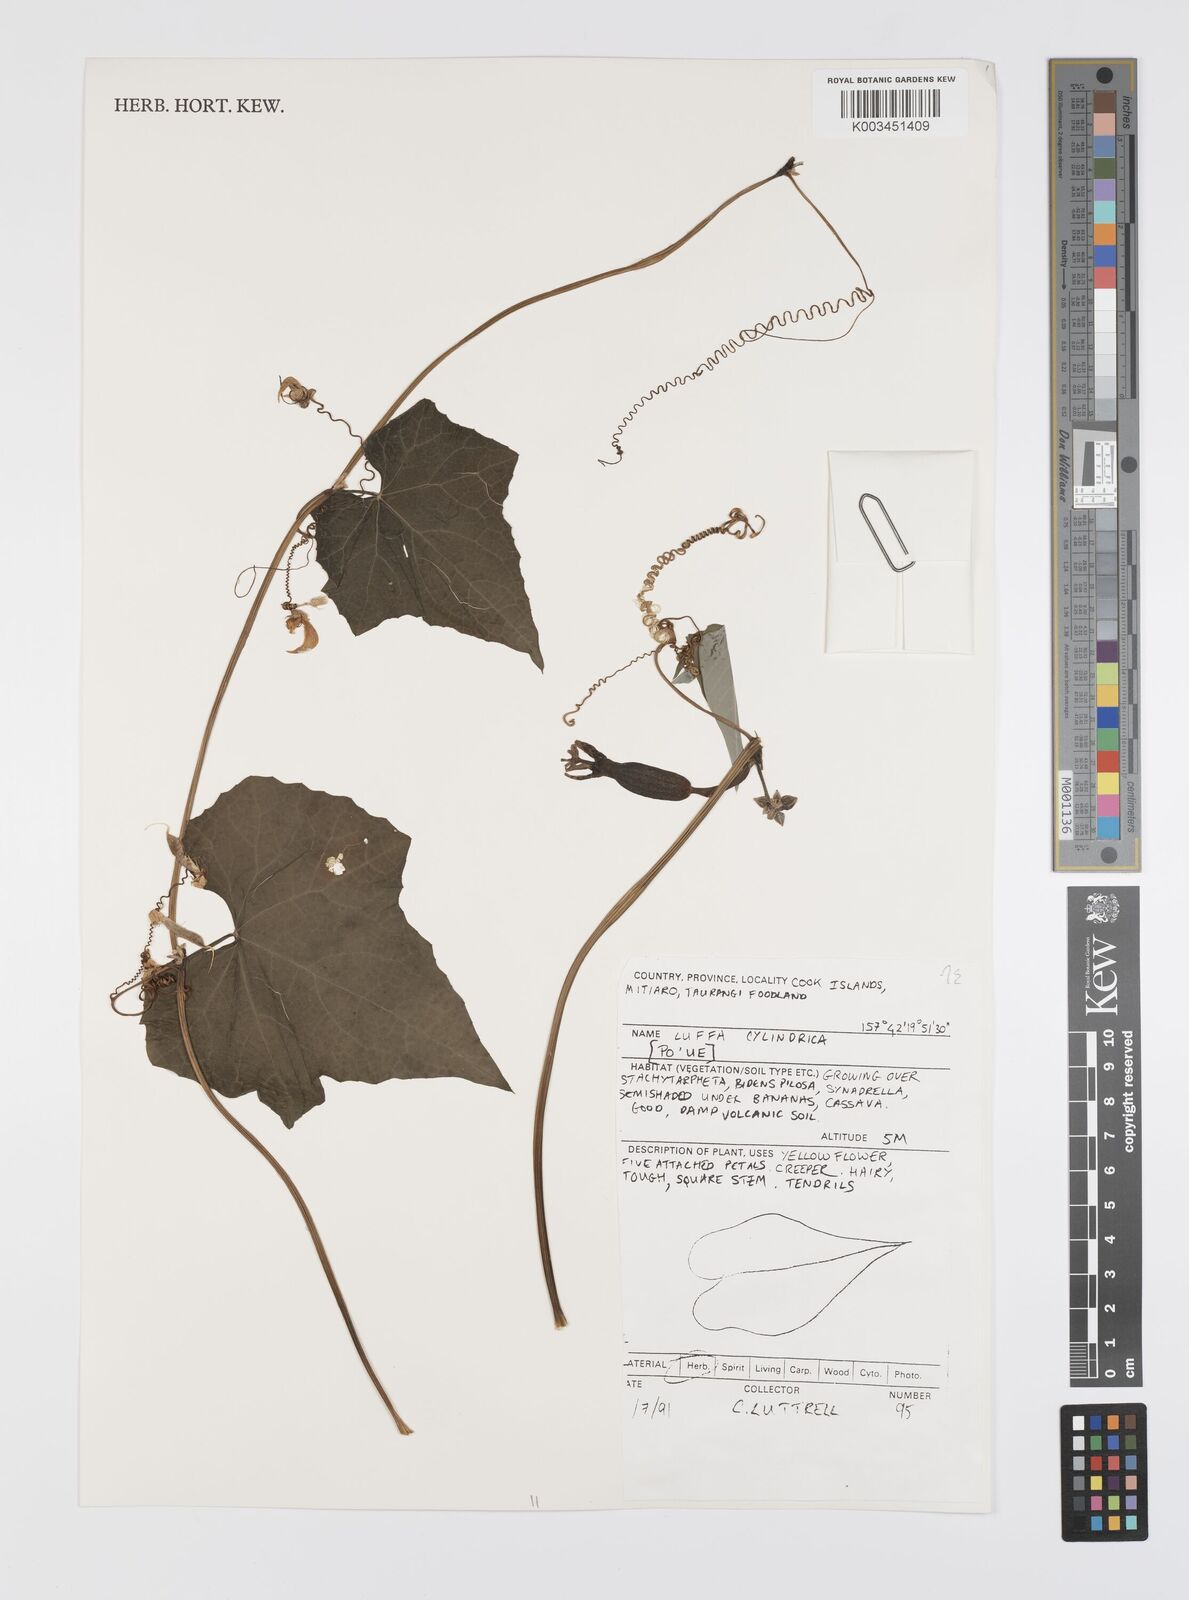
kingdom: Plantae
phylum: Tracheophyta
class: Magnoliopsida
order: Cucurbitales
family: Cucurbitaceae
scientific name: Cucurbitaceae
